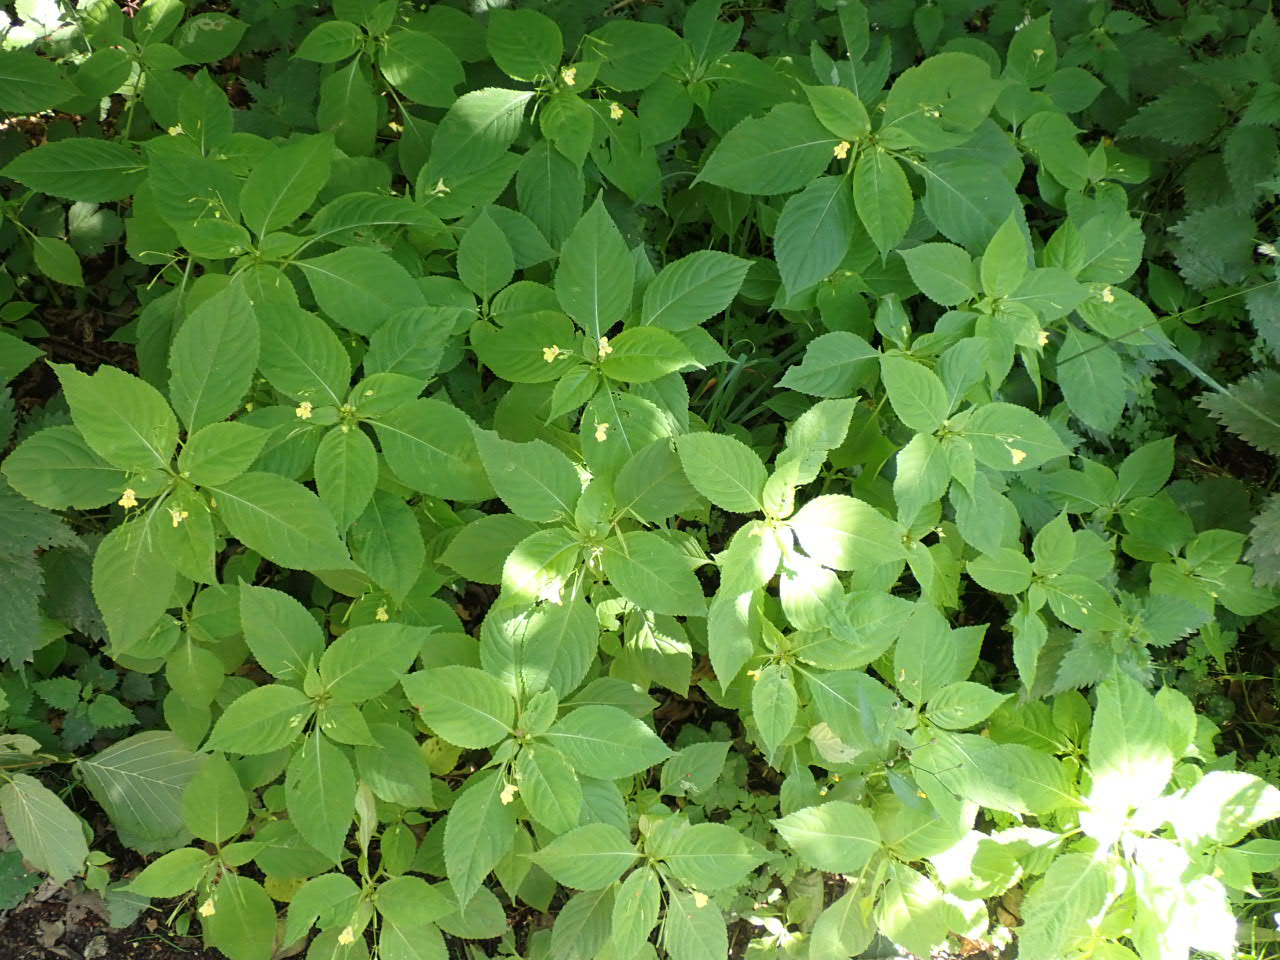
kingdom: Plantae
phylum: Tracheophyta
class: Magnoliopsida
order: Ericales
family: Balsaminaceae
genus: Impatiens
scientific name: Impatiens parviflora
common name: Småblomstret balsamin
